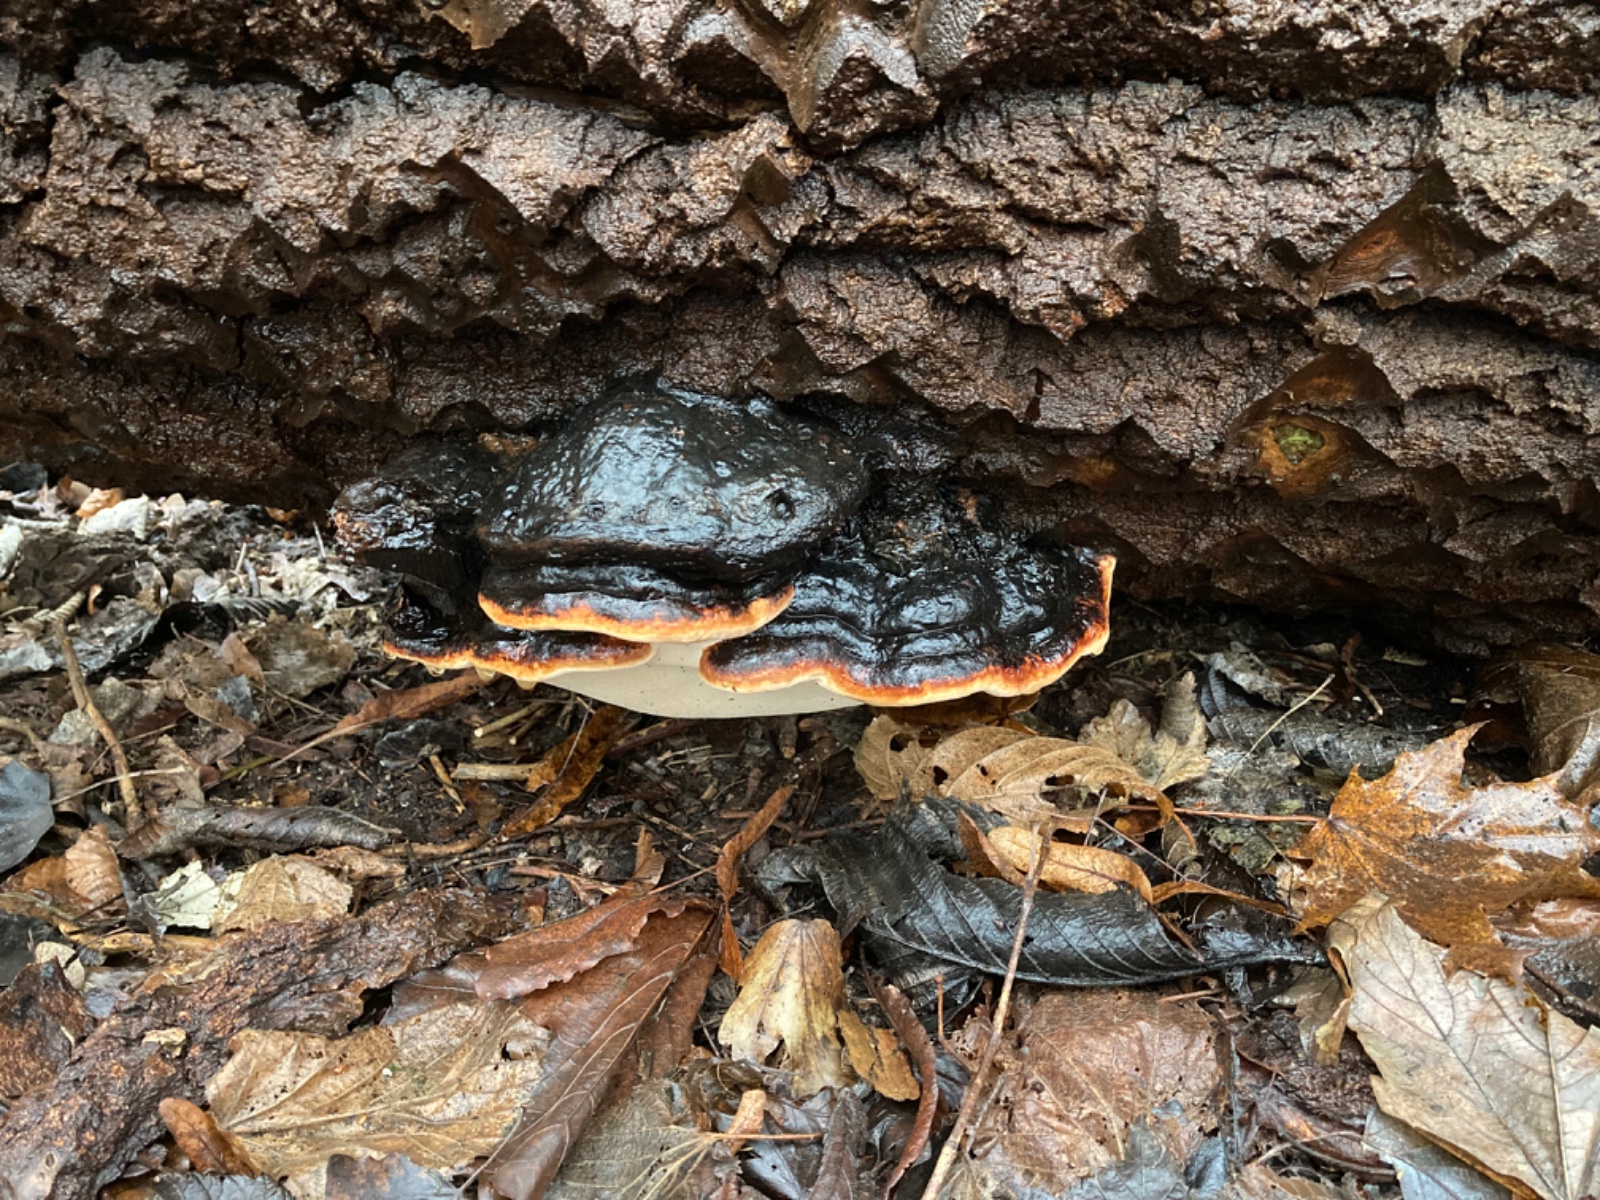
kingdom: Fungi
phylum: Basidiomycota
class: Agaricomycetes
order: Polyporales
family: Fomitopsidaceae
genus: Fomitopsis
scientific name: Fomitopsis pinicola
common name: randbæltet hovporesvamp
